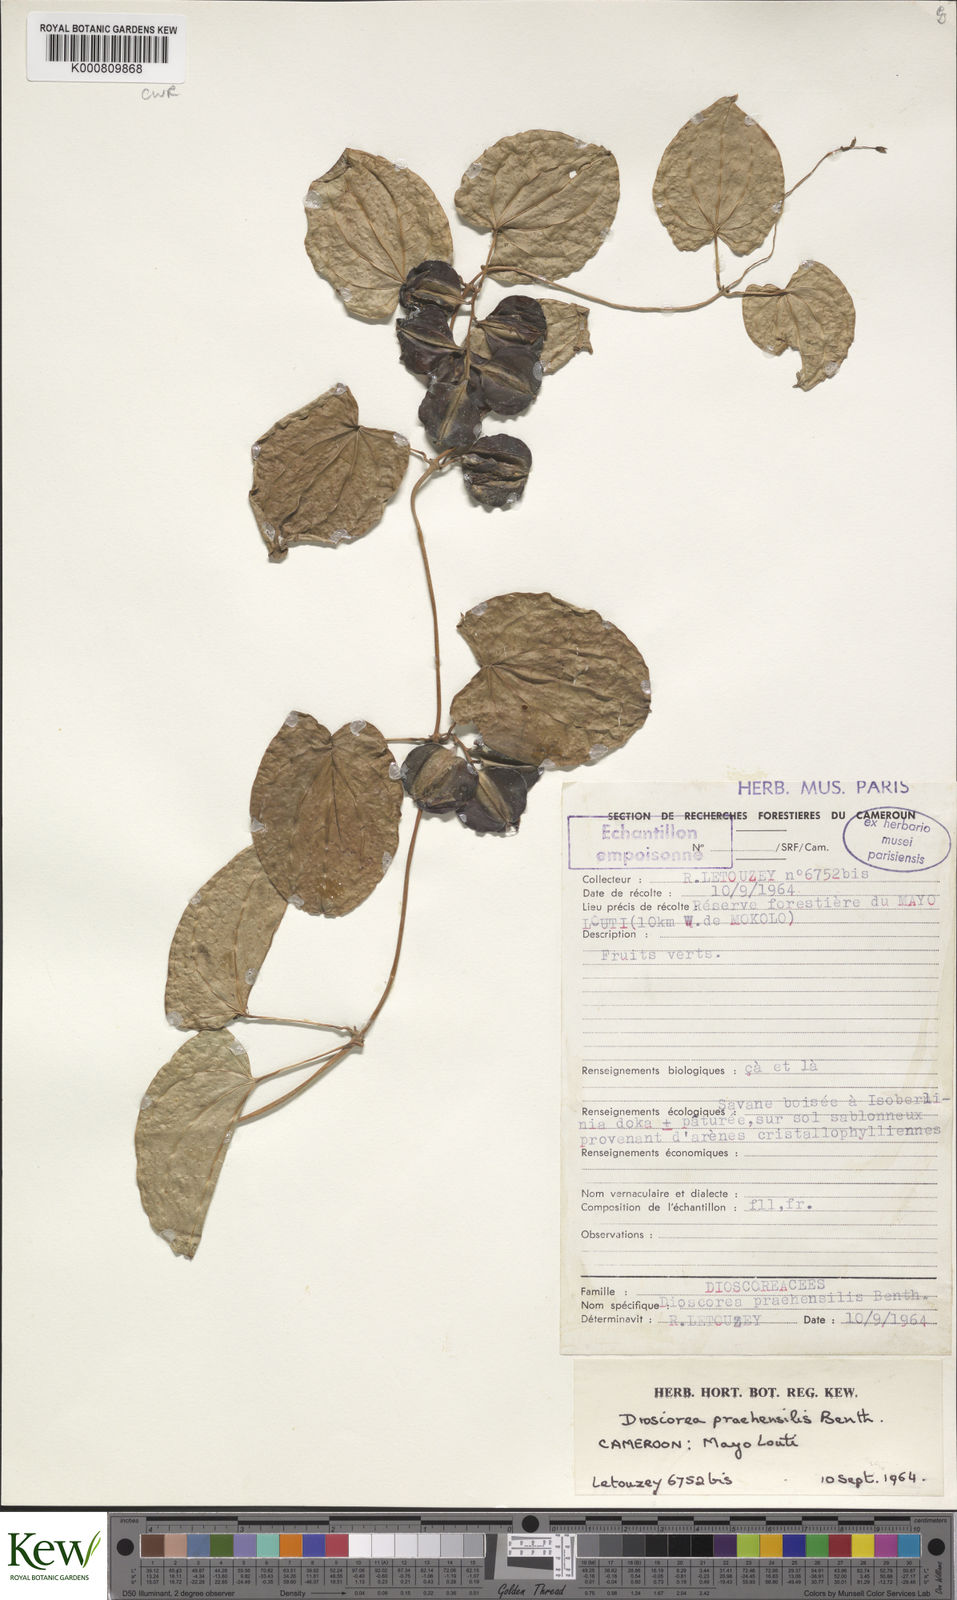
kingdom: Plantae
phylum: Tracheophyta
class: Liliopsida
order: Dioscoreales
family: Dioscoreaceae
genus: Dioscorea
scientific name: Dioscorea praehensilis
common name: Bush yam
